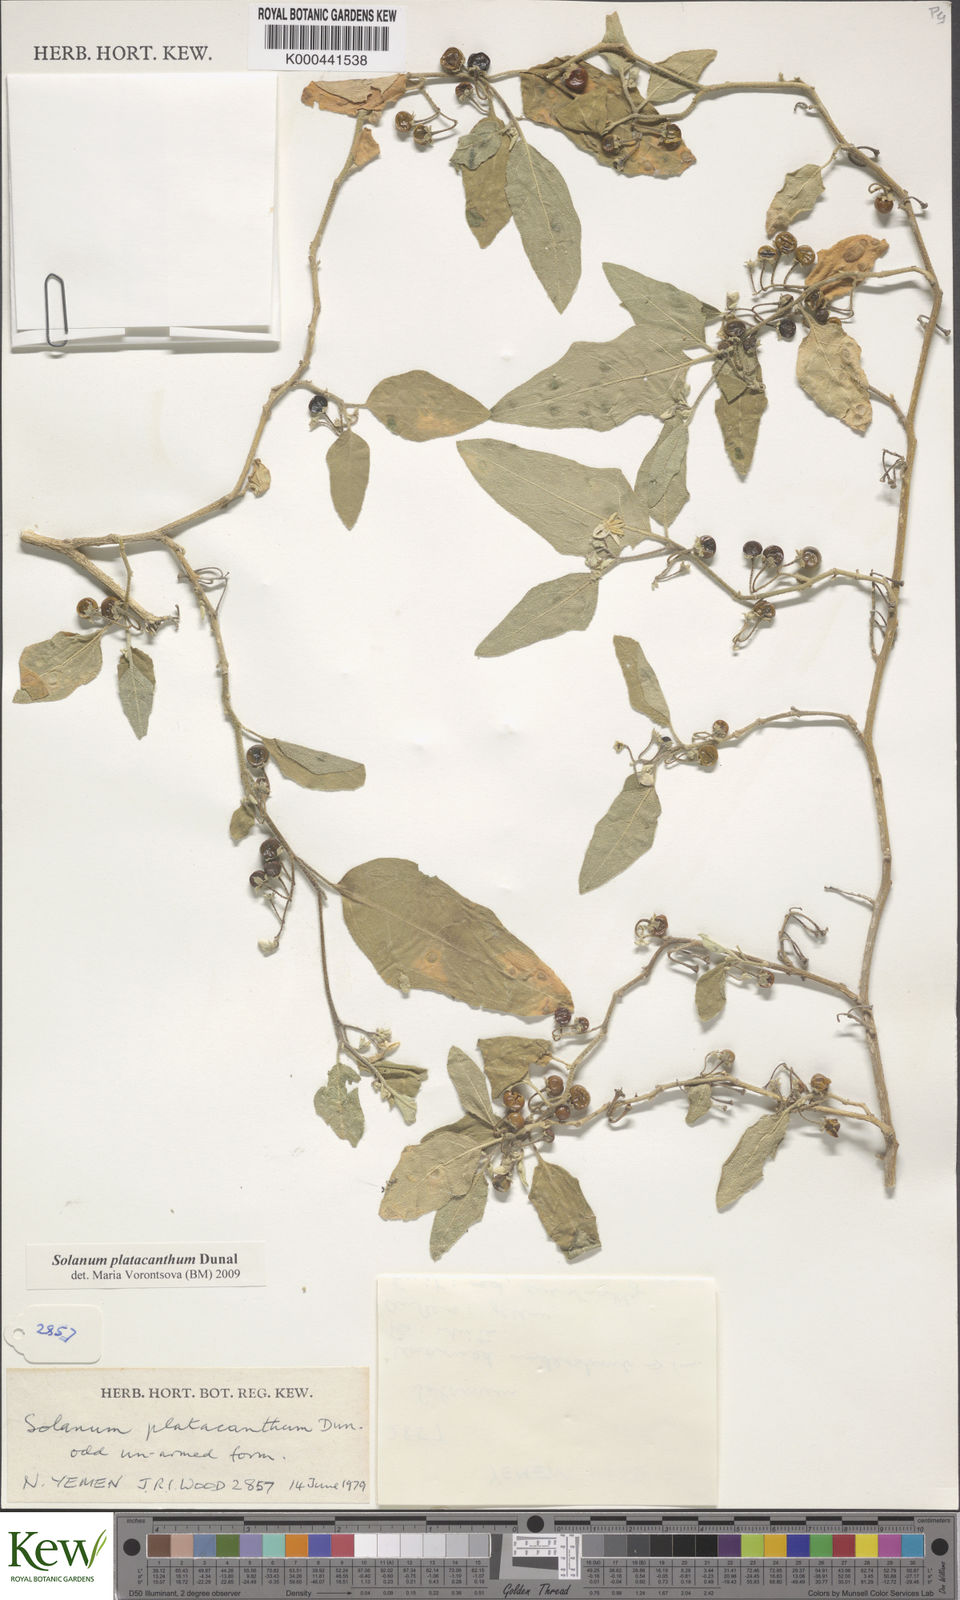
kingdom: Plantae
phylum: Tracheophyta
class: Magnoliopsida
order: Solanales
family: Solanaceae
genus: Solanum
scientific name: Solanum platacanthum
